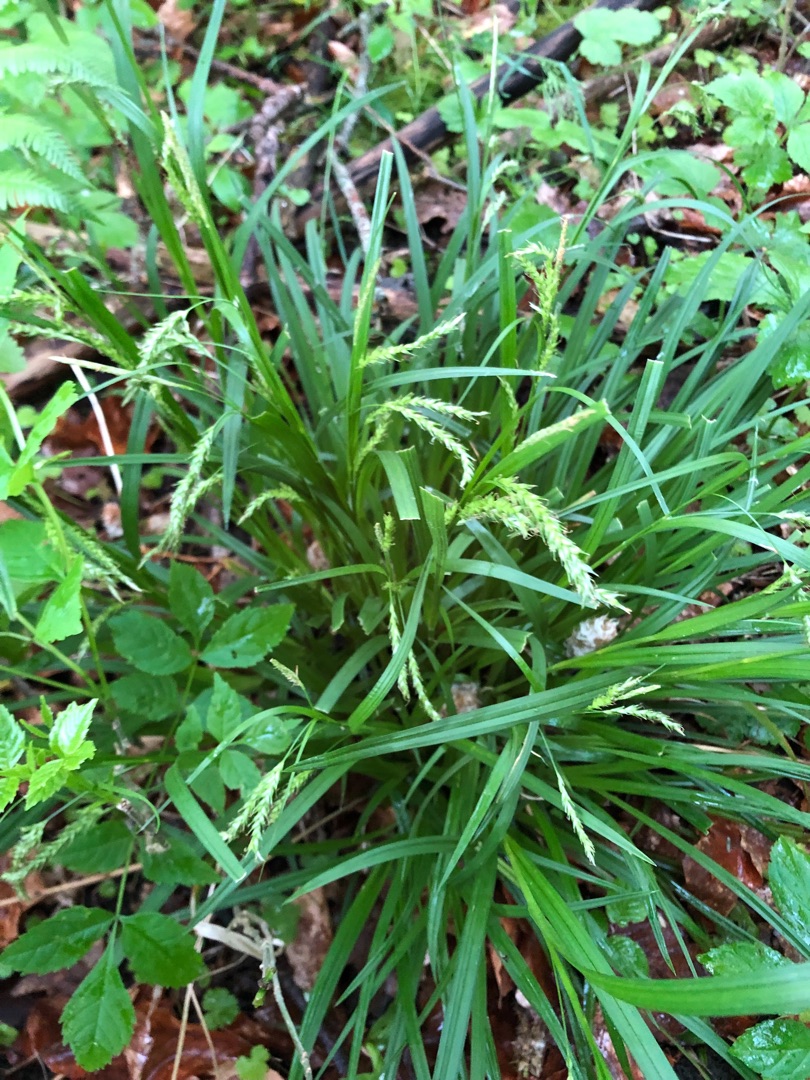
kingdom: Plantae
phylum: Tracheophyta
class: Liliopsida
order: Poales
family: Cyperaceae
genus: Carex
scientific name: Carex sylvatica
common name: Skov-star
